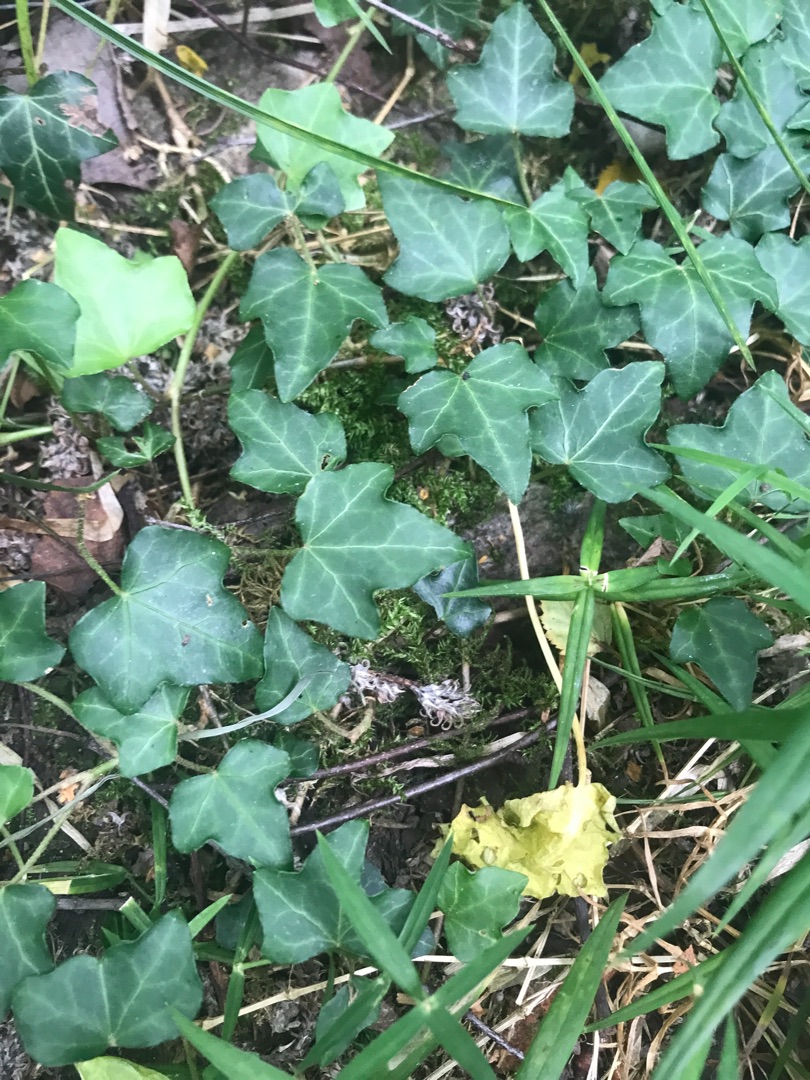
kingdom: Plantae
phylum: Tracheophyta
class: Magnoliopsida
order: Apiales
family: Araliaceae
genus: Hedera
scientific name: Hedera helix
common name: Vedbend
